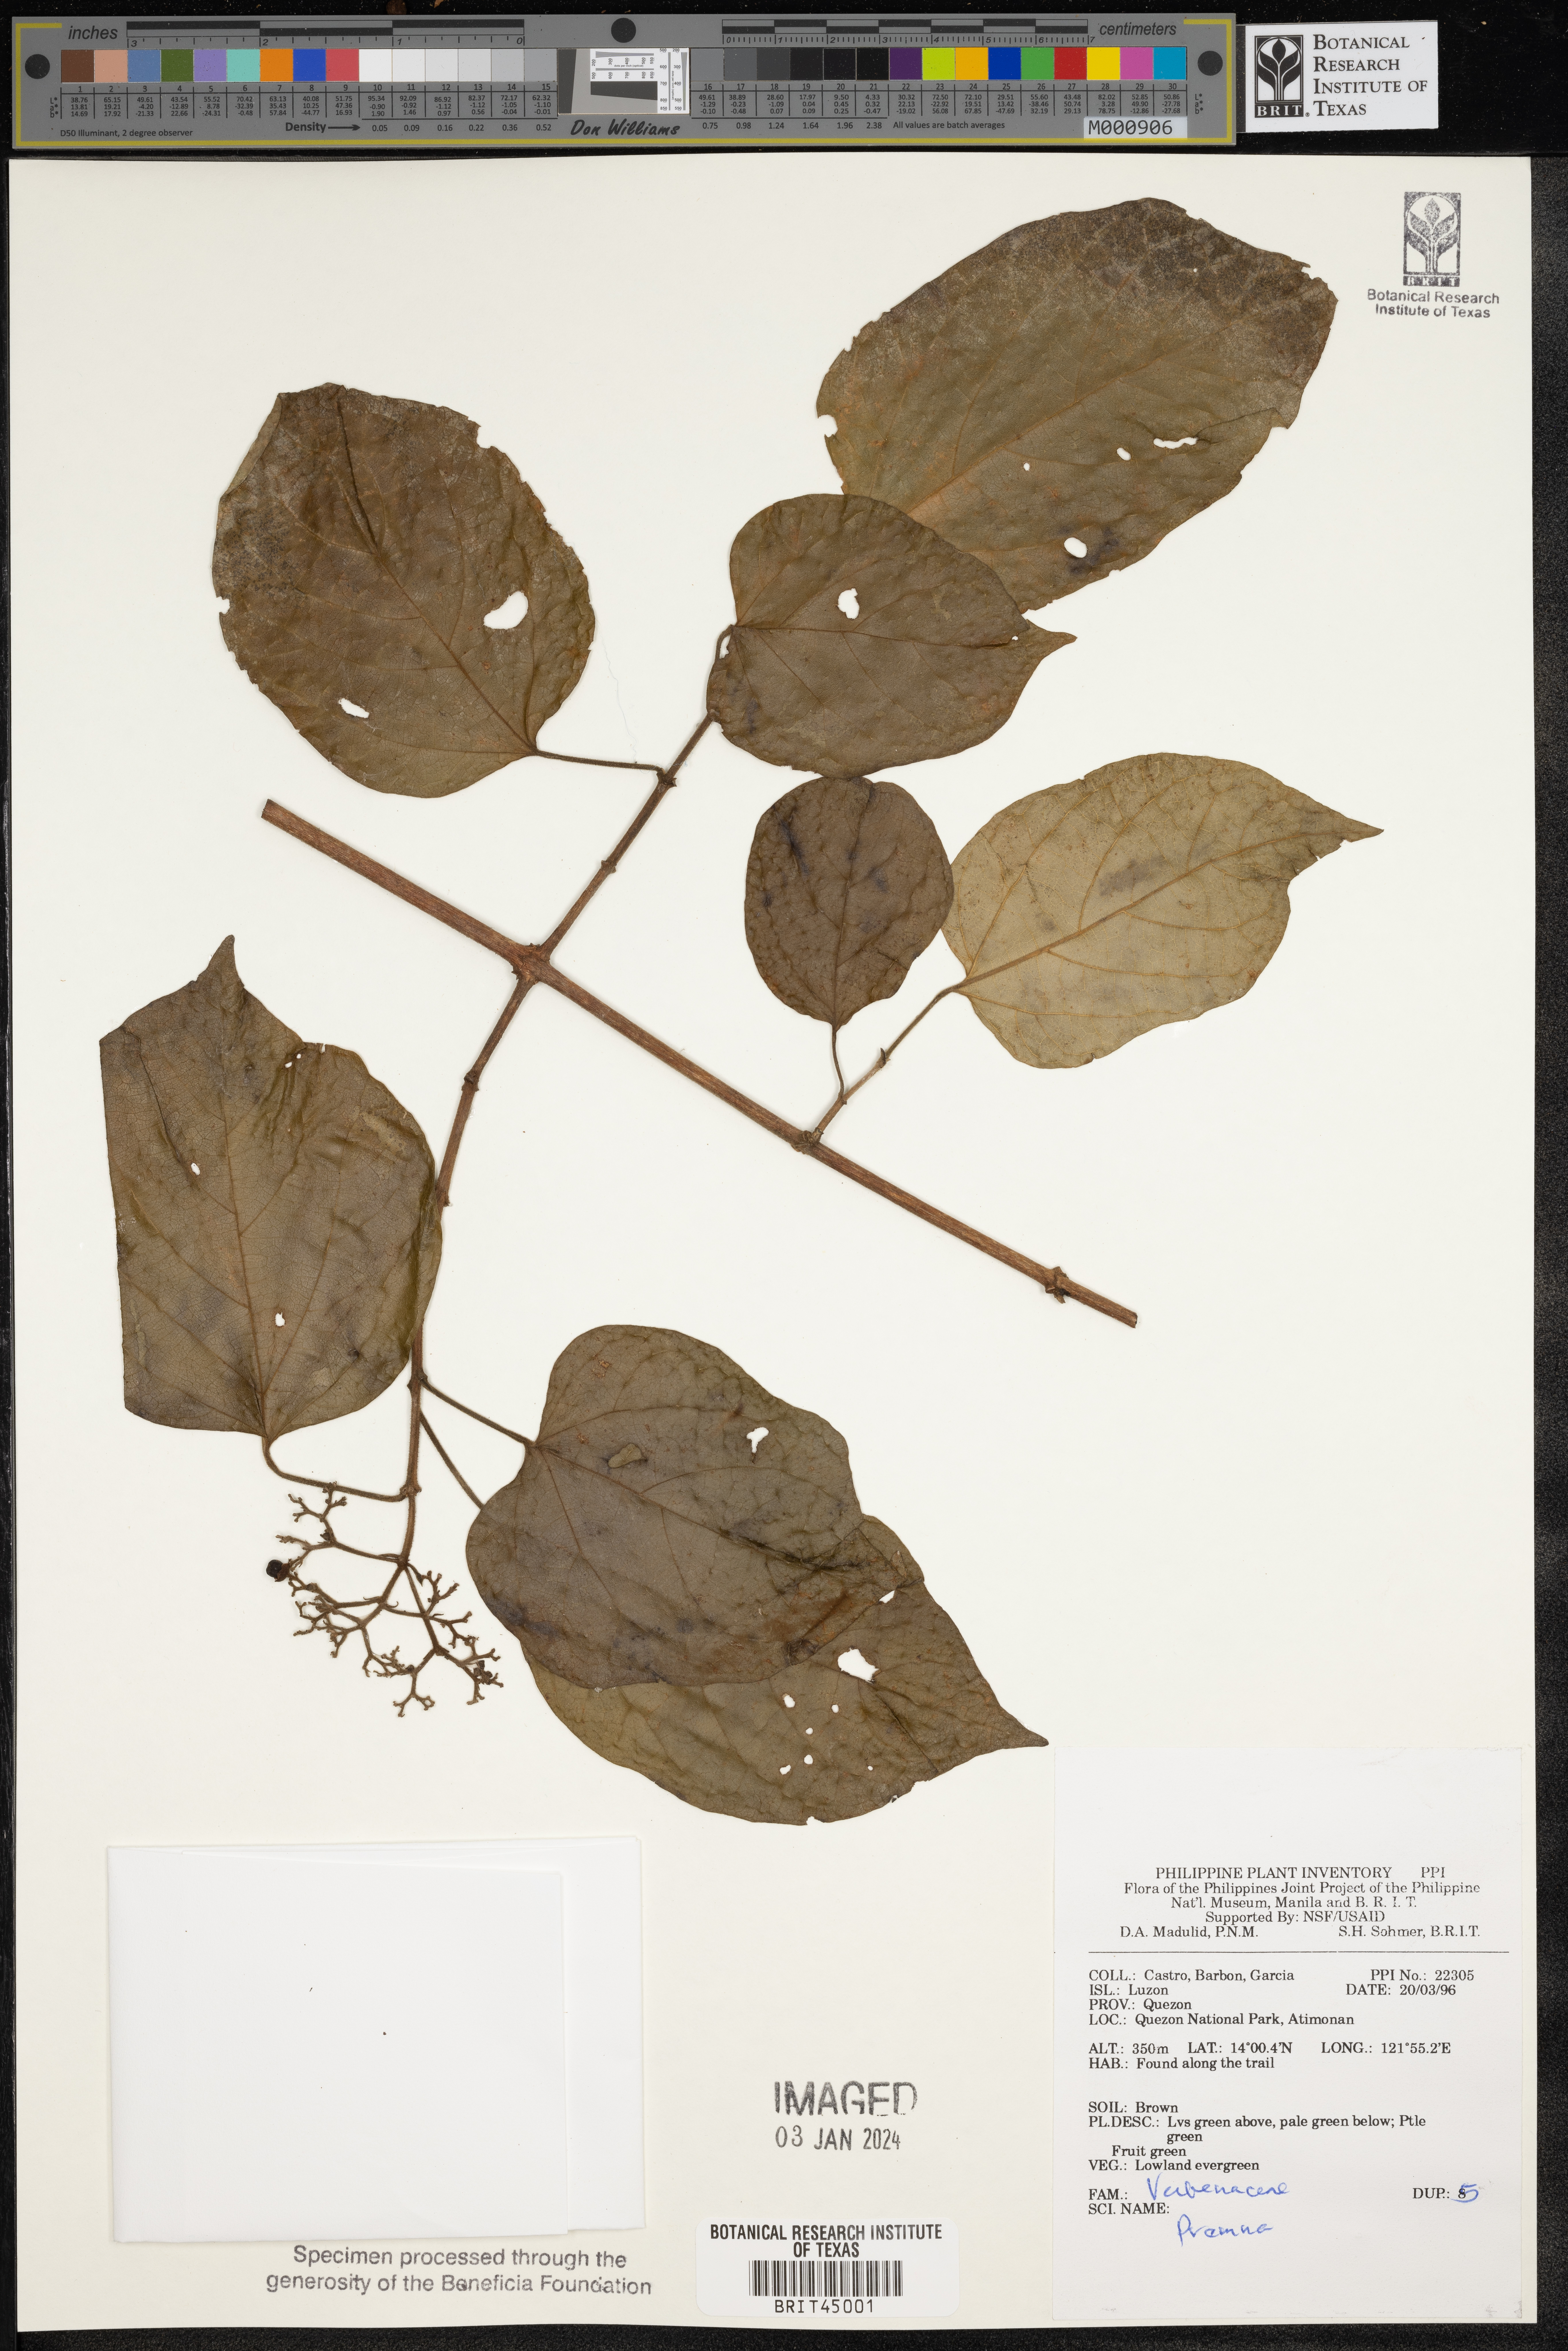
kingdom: Plantae
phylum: Tracheophyta
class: Magnoliopsida
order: Lamiales
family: Lamiaceae
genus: Premna
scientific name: Premna
